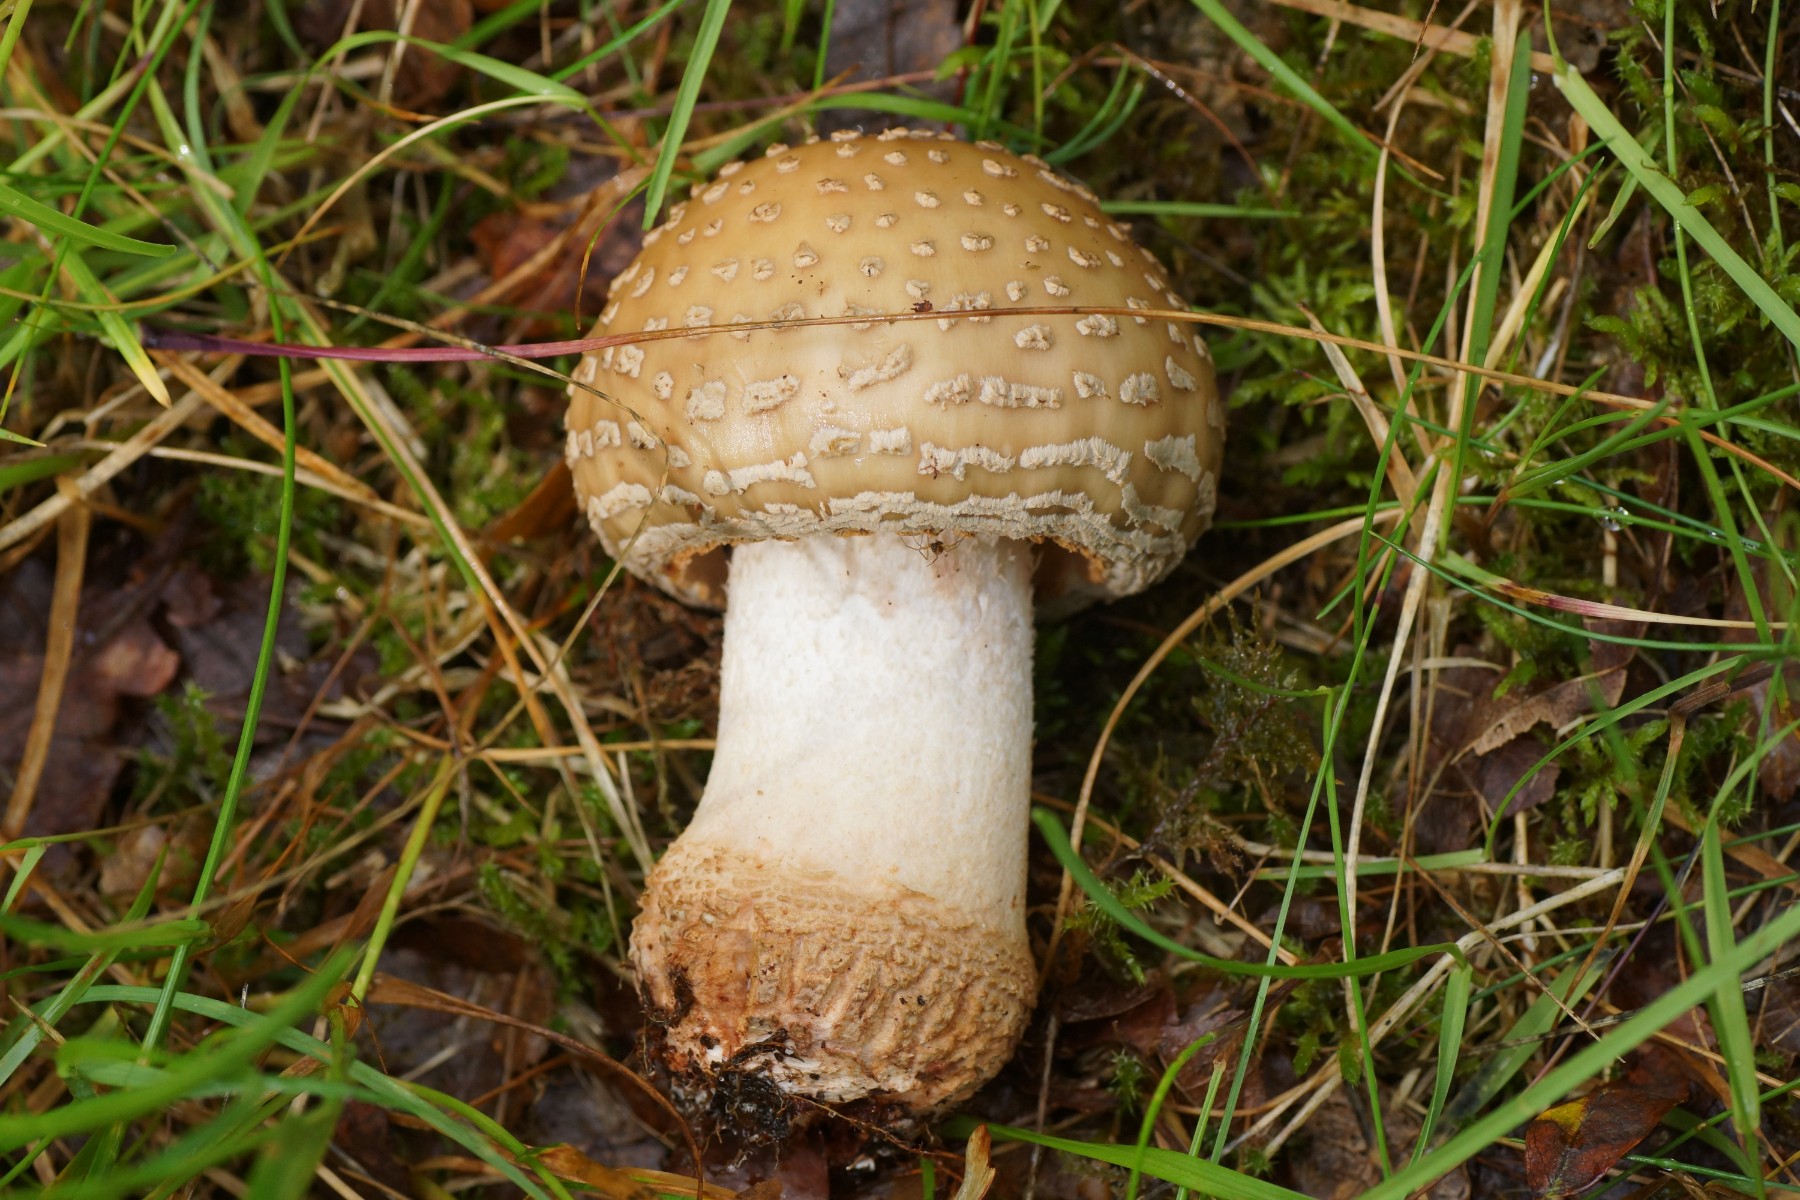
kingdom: Fungi
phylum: Basidiomycota
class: Agaricomycetes
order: Agaricales
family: Amanitaceae
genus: Amanita
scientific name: Amanita rubescens
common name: rødmende fluesvamp
